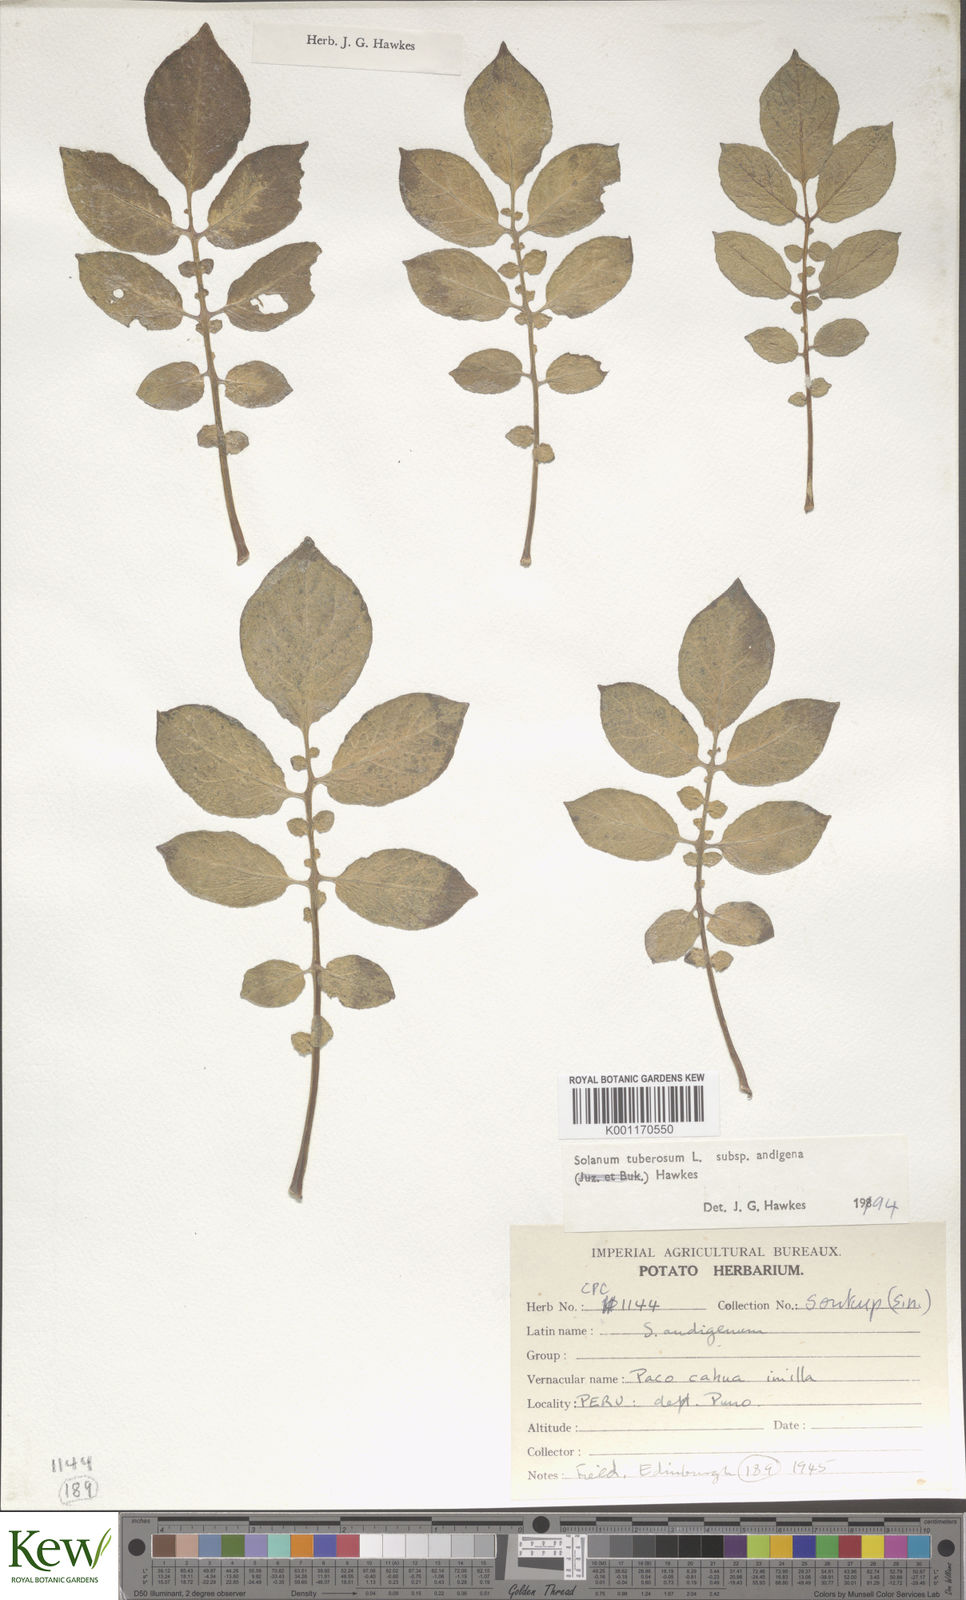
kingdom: Plantae
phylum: Tracheophyta
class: Magnoliopsida
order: Solanales
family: Solanaceae
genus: Solanum
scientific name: Solanum tuberosum
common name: Potato
